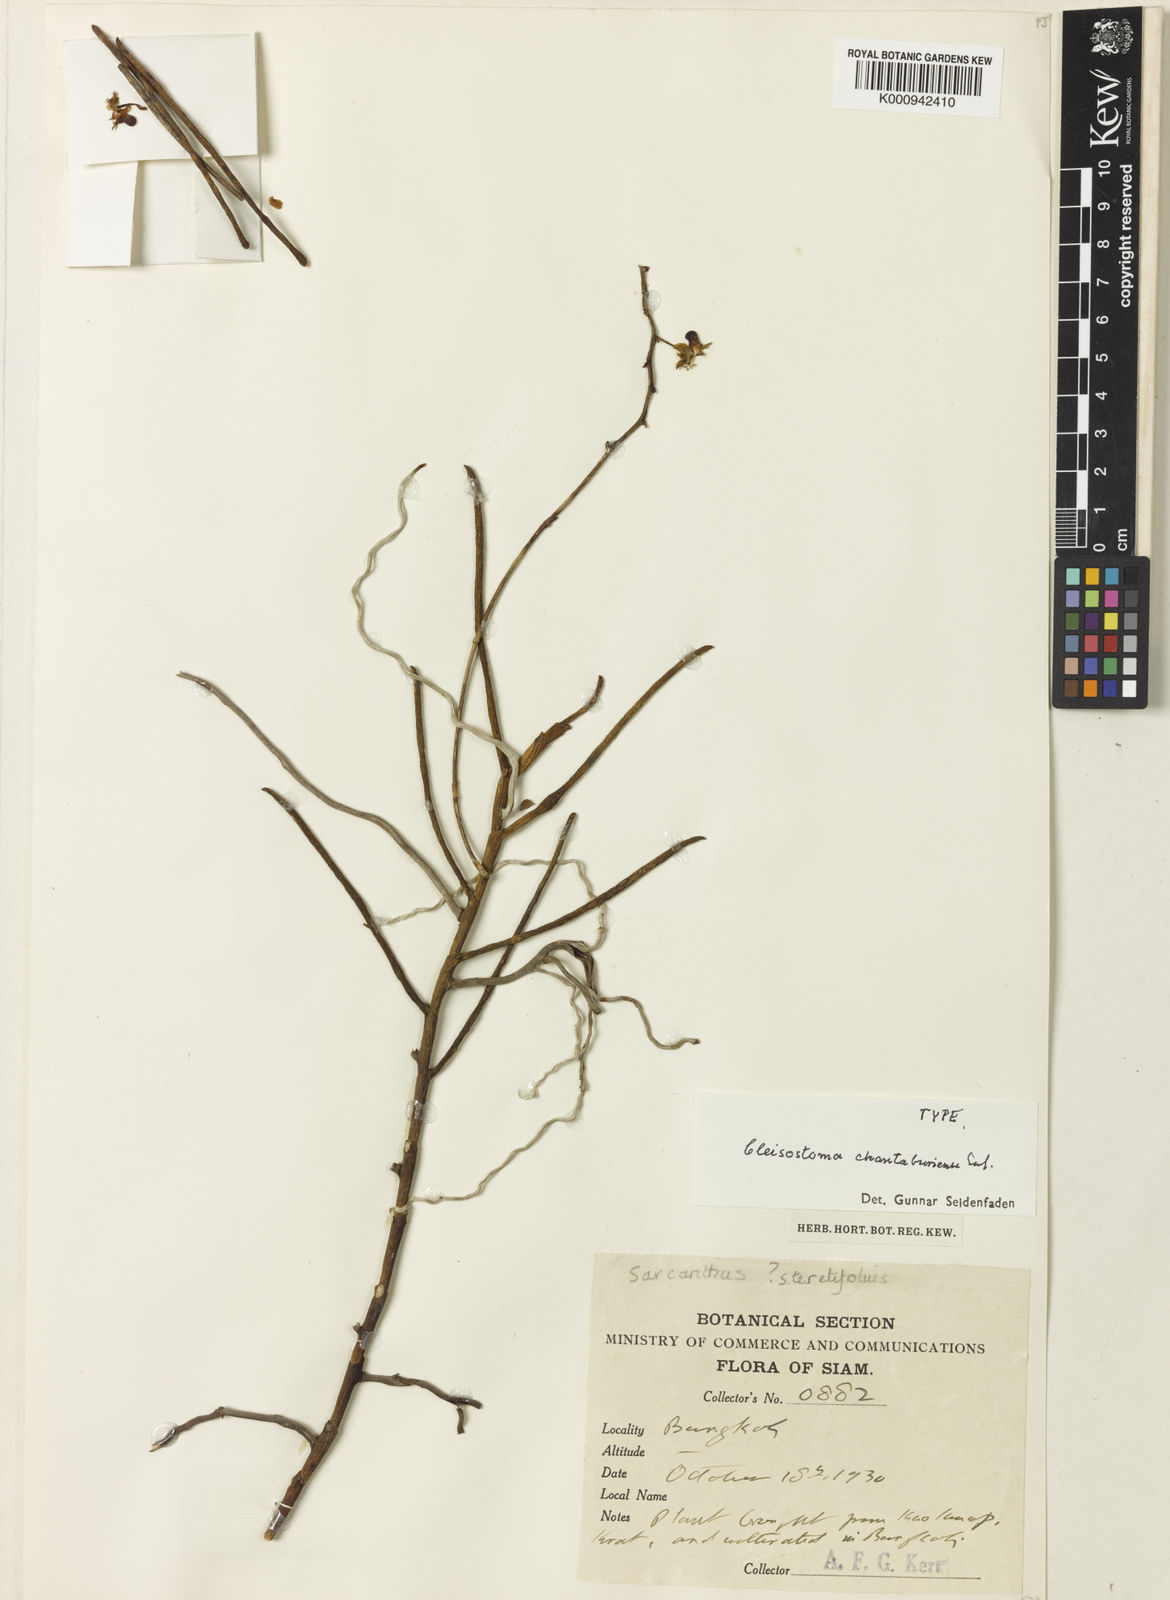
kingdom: Plantae
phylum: Tracheophyta
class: Liliopsida
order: Asparagales
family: Orchidaceae
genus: Cleisostoma
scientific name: Cleisostoma chantaburiense
